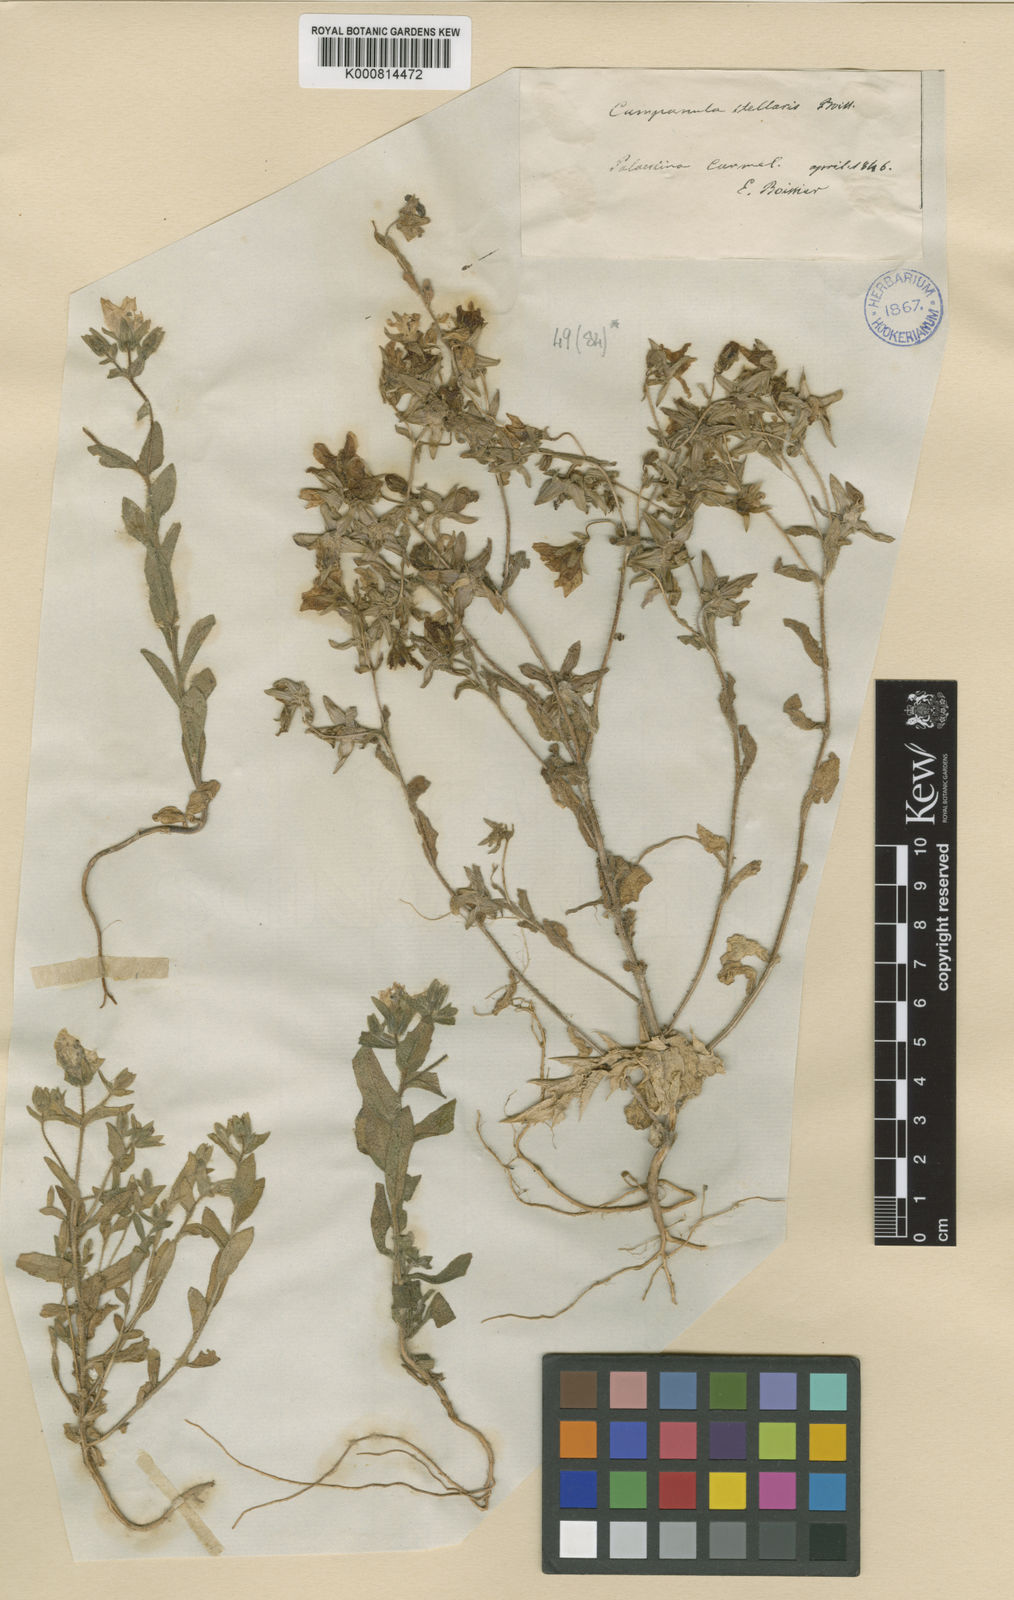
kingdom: Plantae
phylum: Tracheophyta
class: Magnoliopsida
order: Asterales
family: Campanulaceae
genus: Campanula
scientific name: Campanula stellaris
